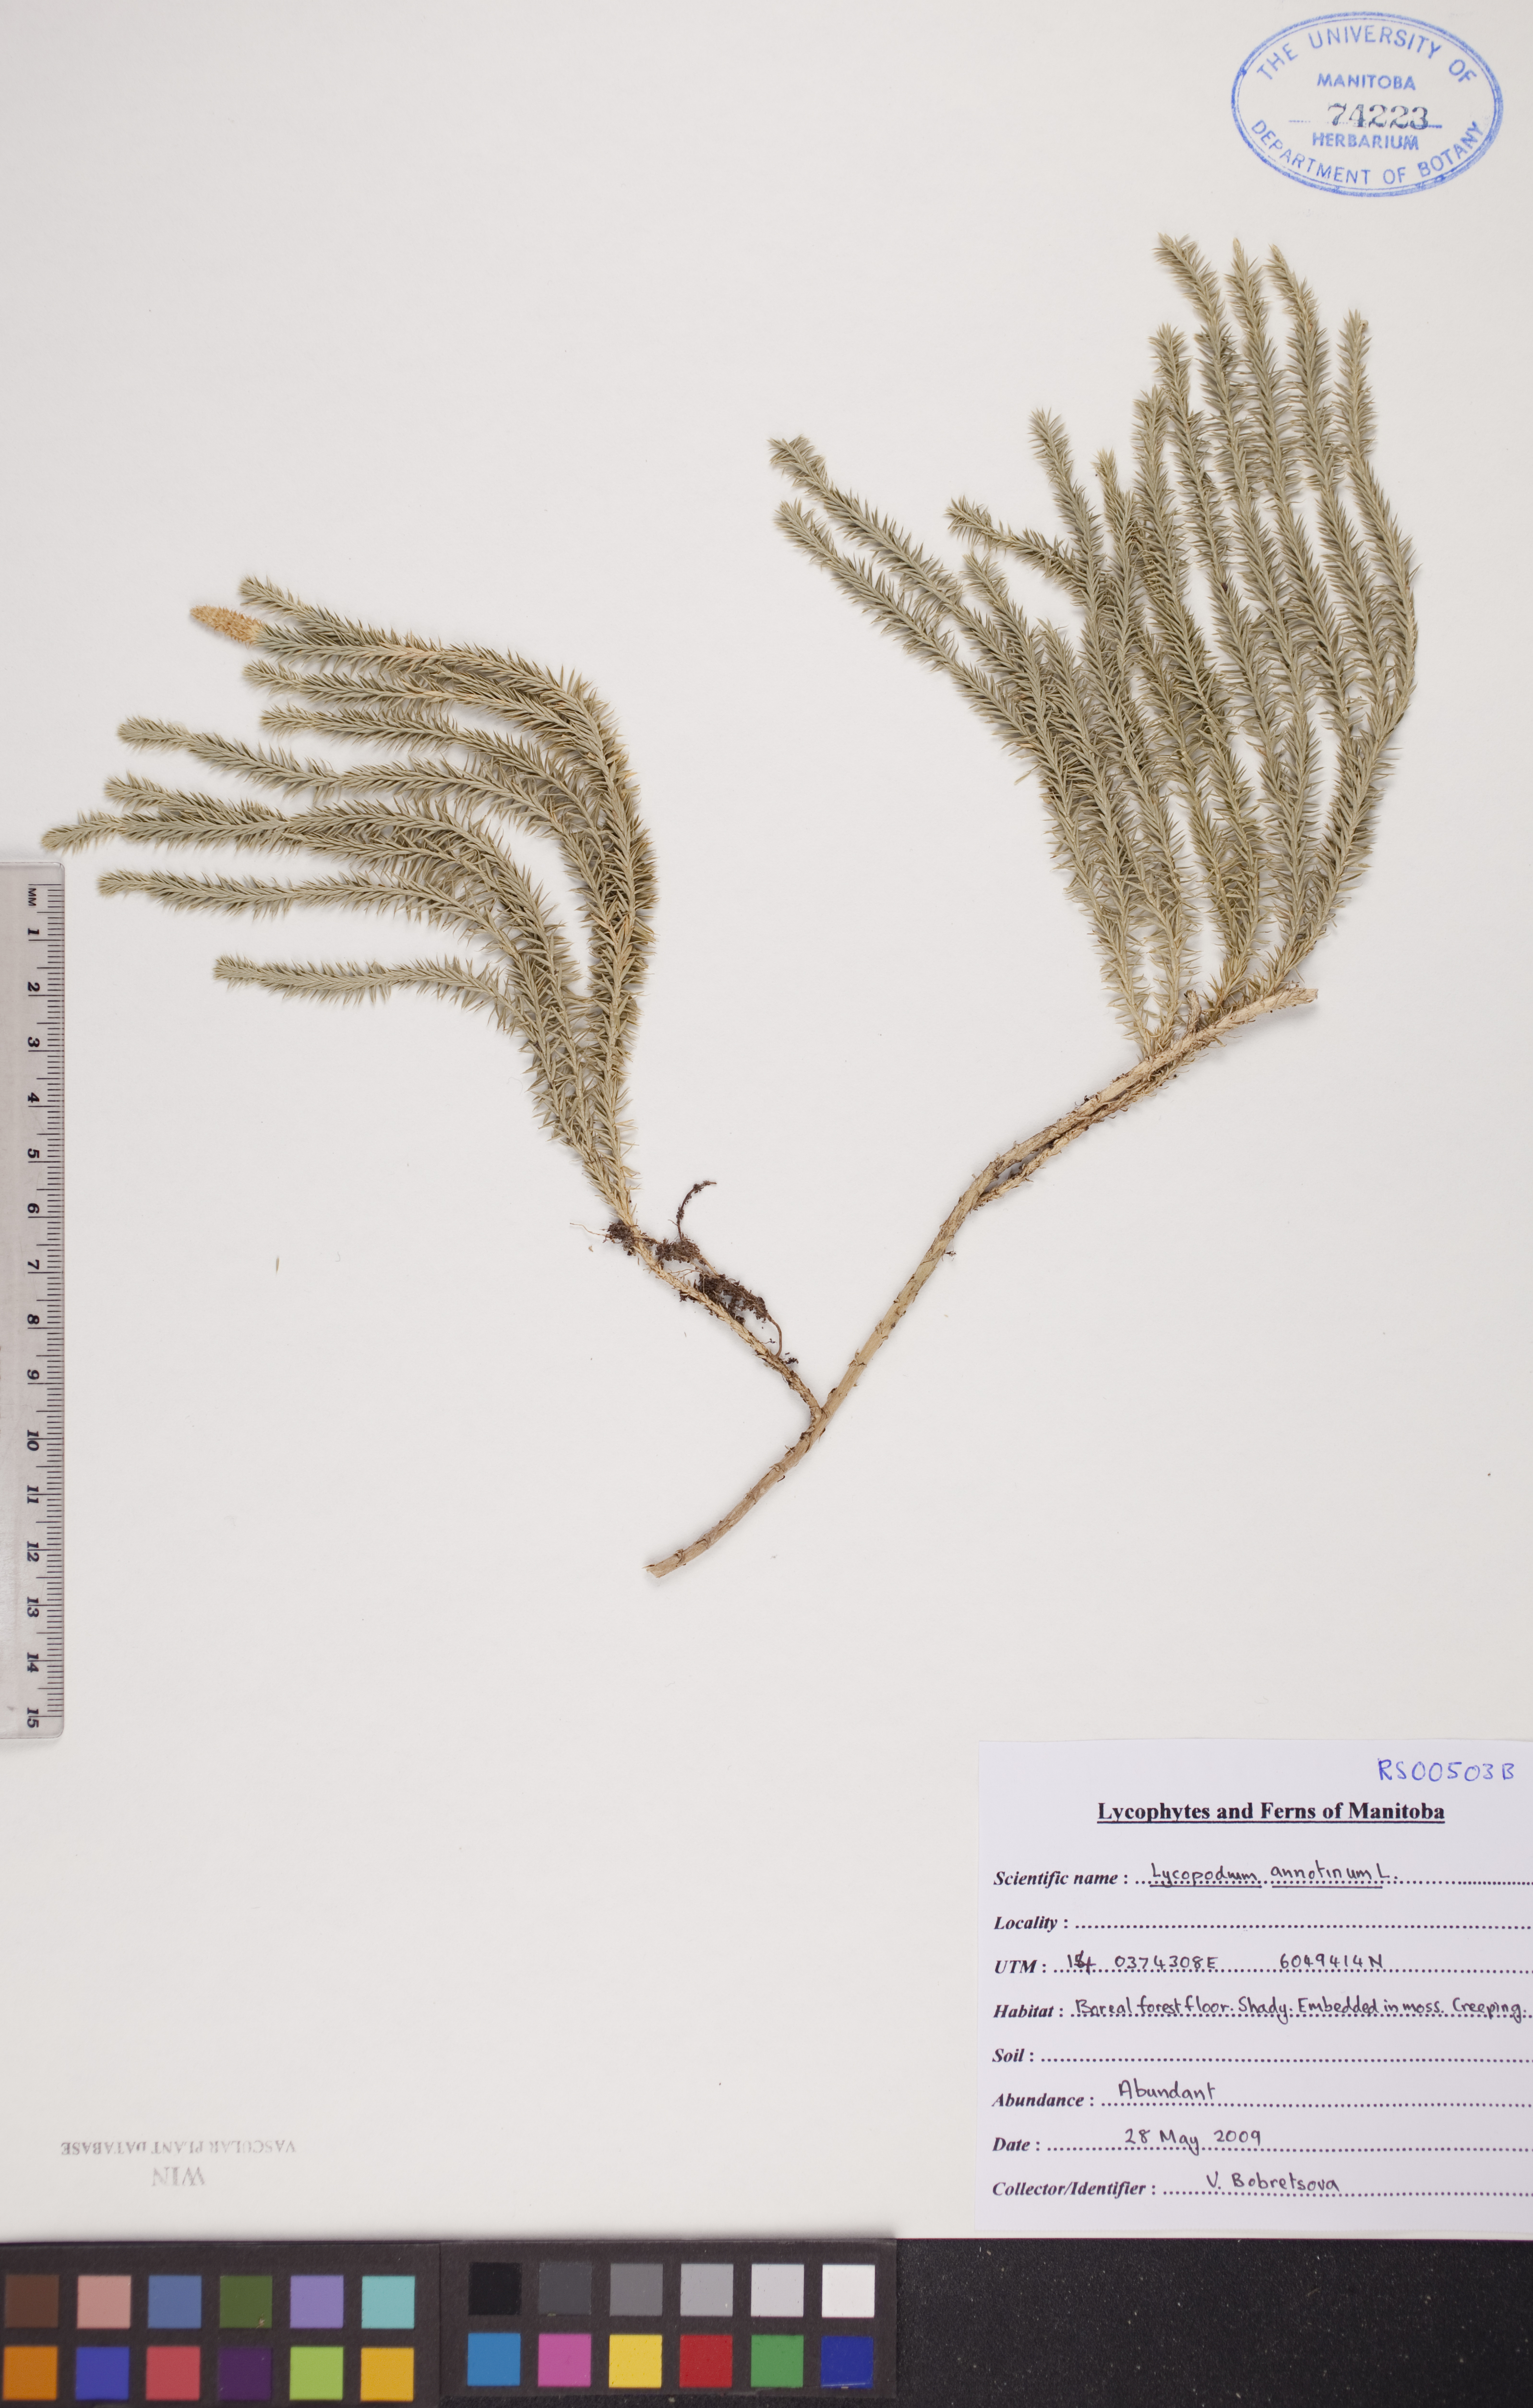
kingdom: Plantae
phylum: Tracheophyta
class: Lycopodiopsida
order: Lycopodiales
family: Lycopodiaceae
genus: Spinulum
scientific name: Spinulum annotinum
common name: Interrupted club-moss
